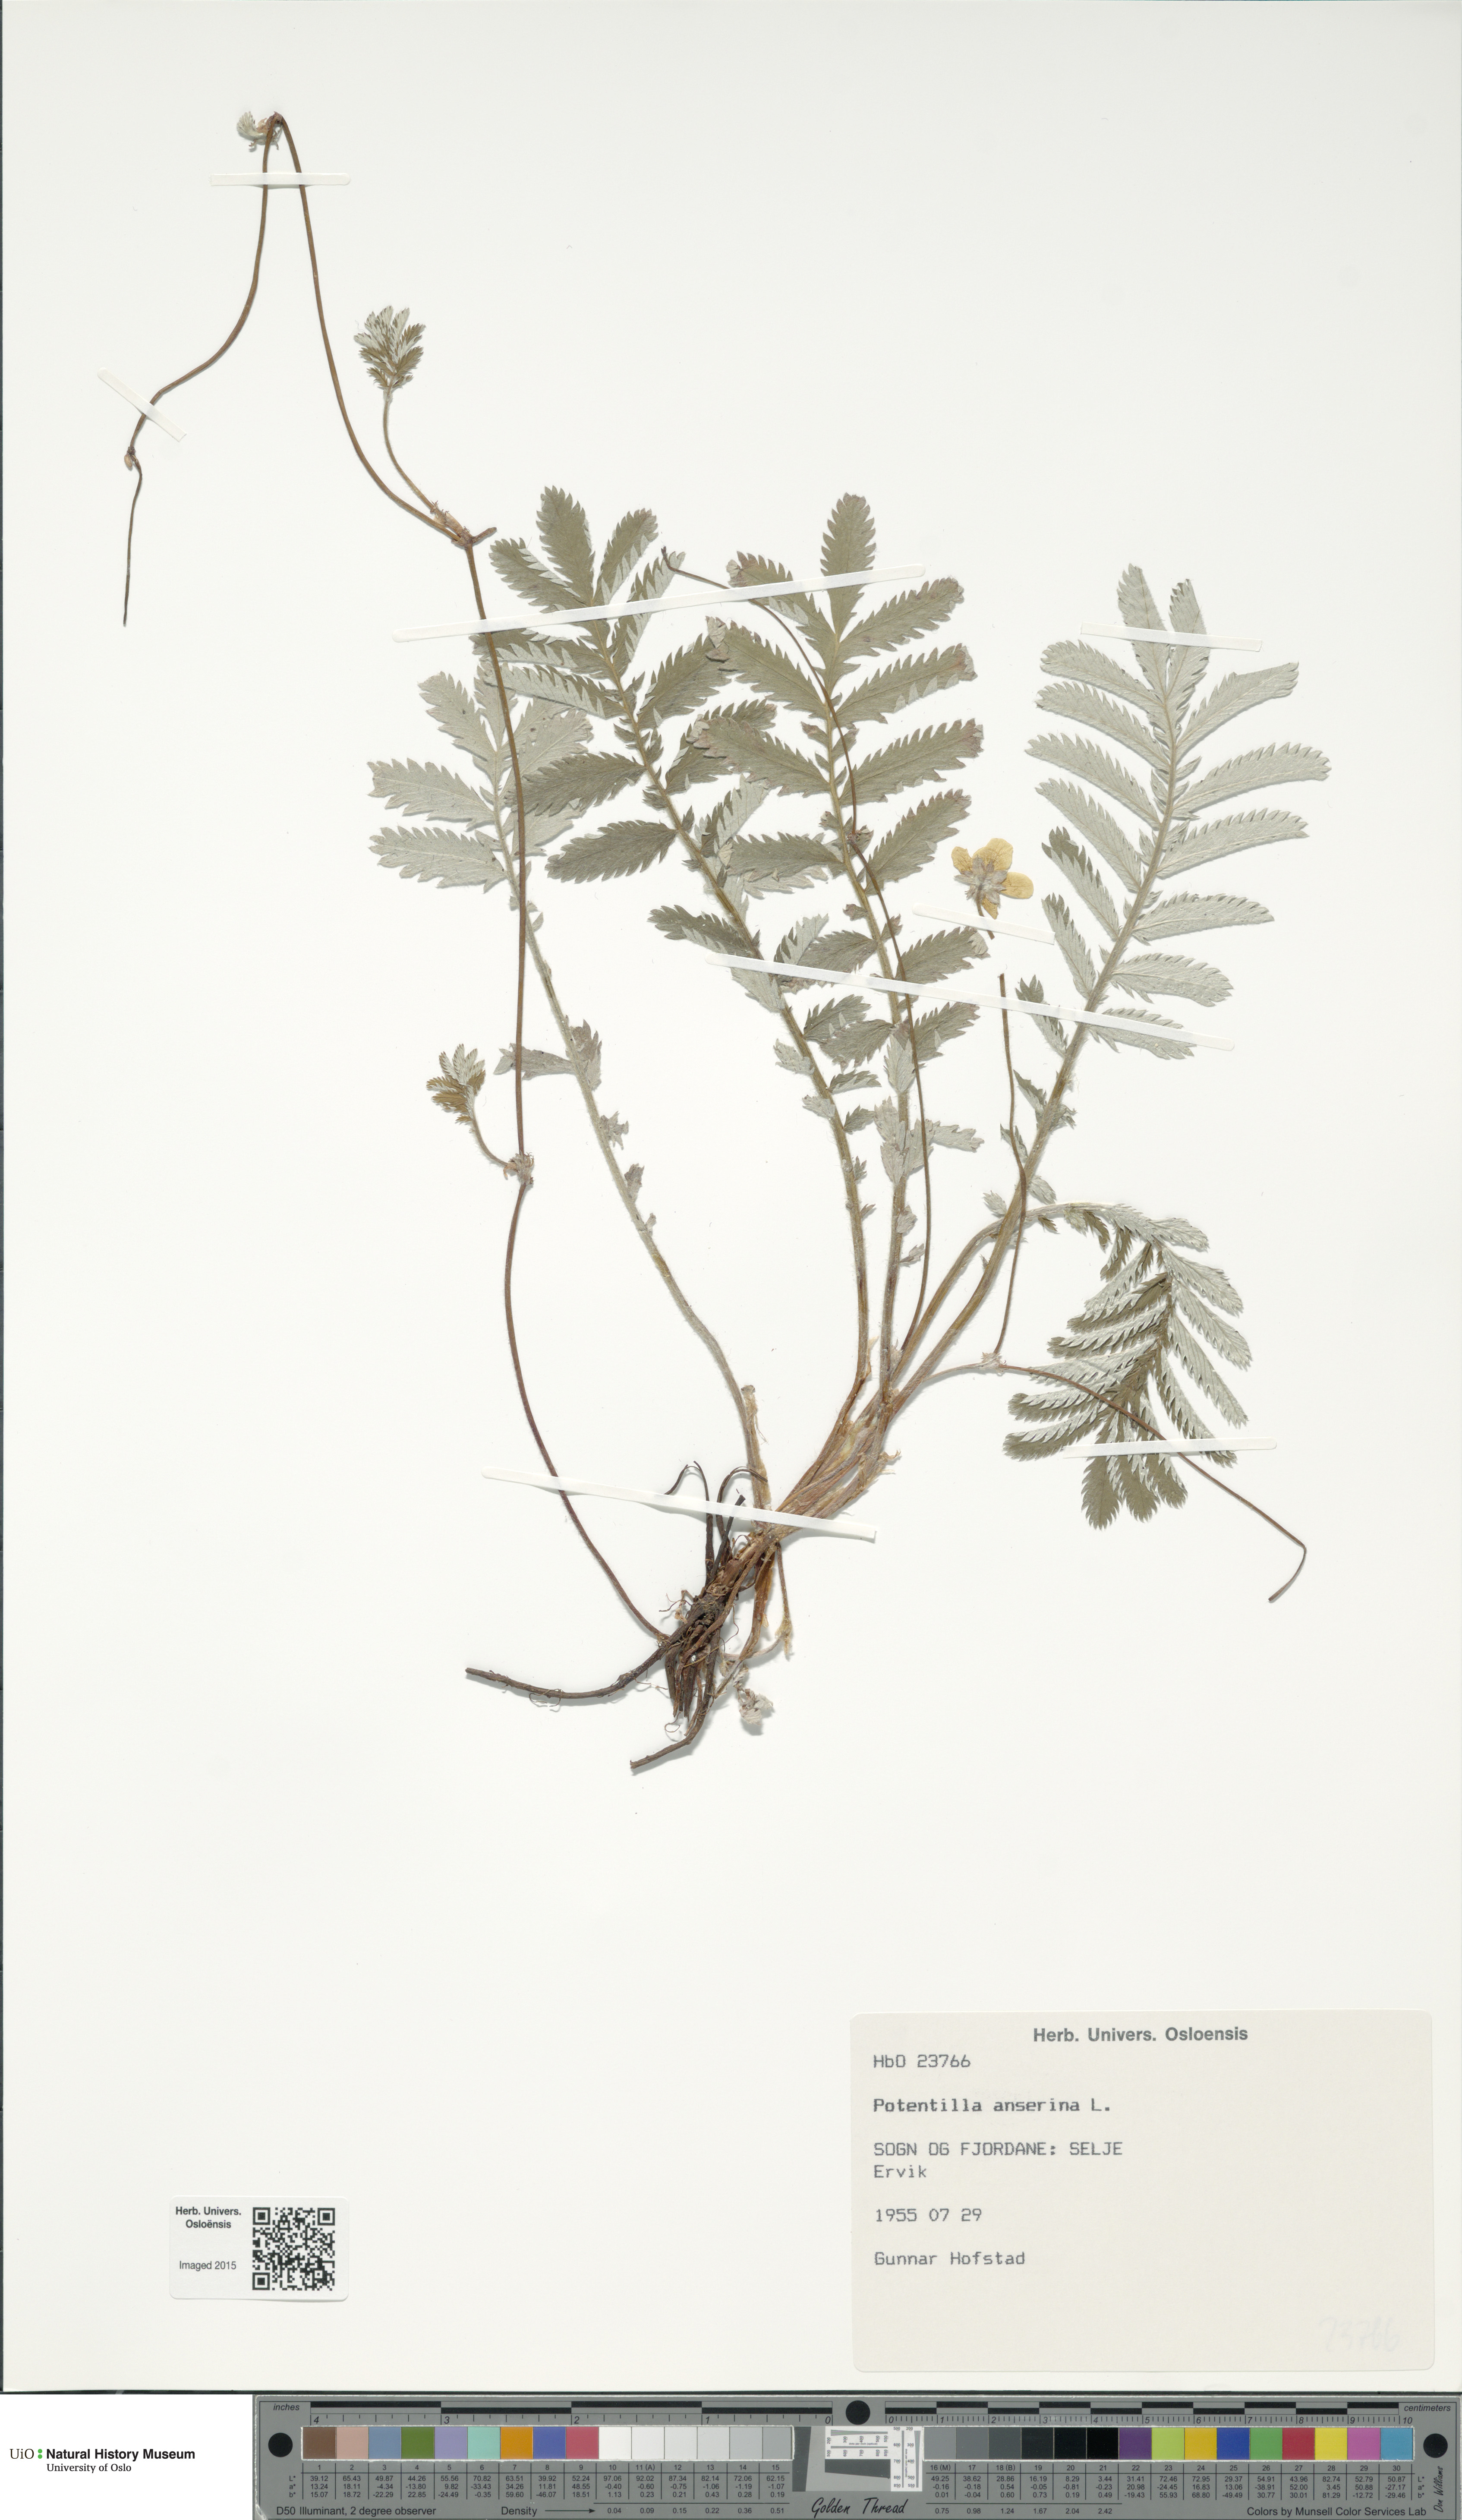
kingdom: Plantae
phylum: Tracheophyta
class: Magnoliopsida
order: Rosales
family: Rosaceae
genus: Argentina
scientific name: Argentina anserina
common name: Common silverweed
